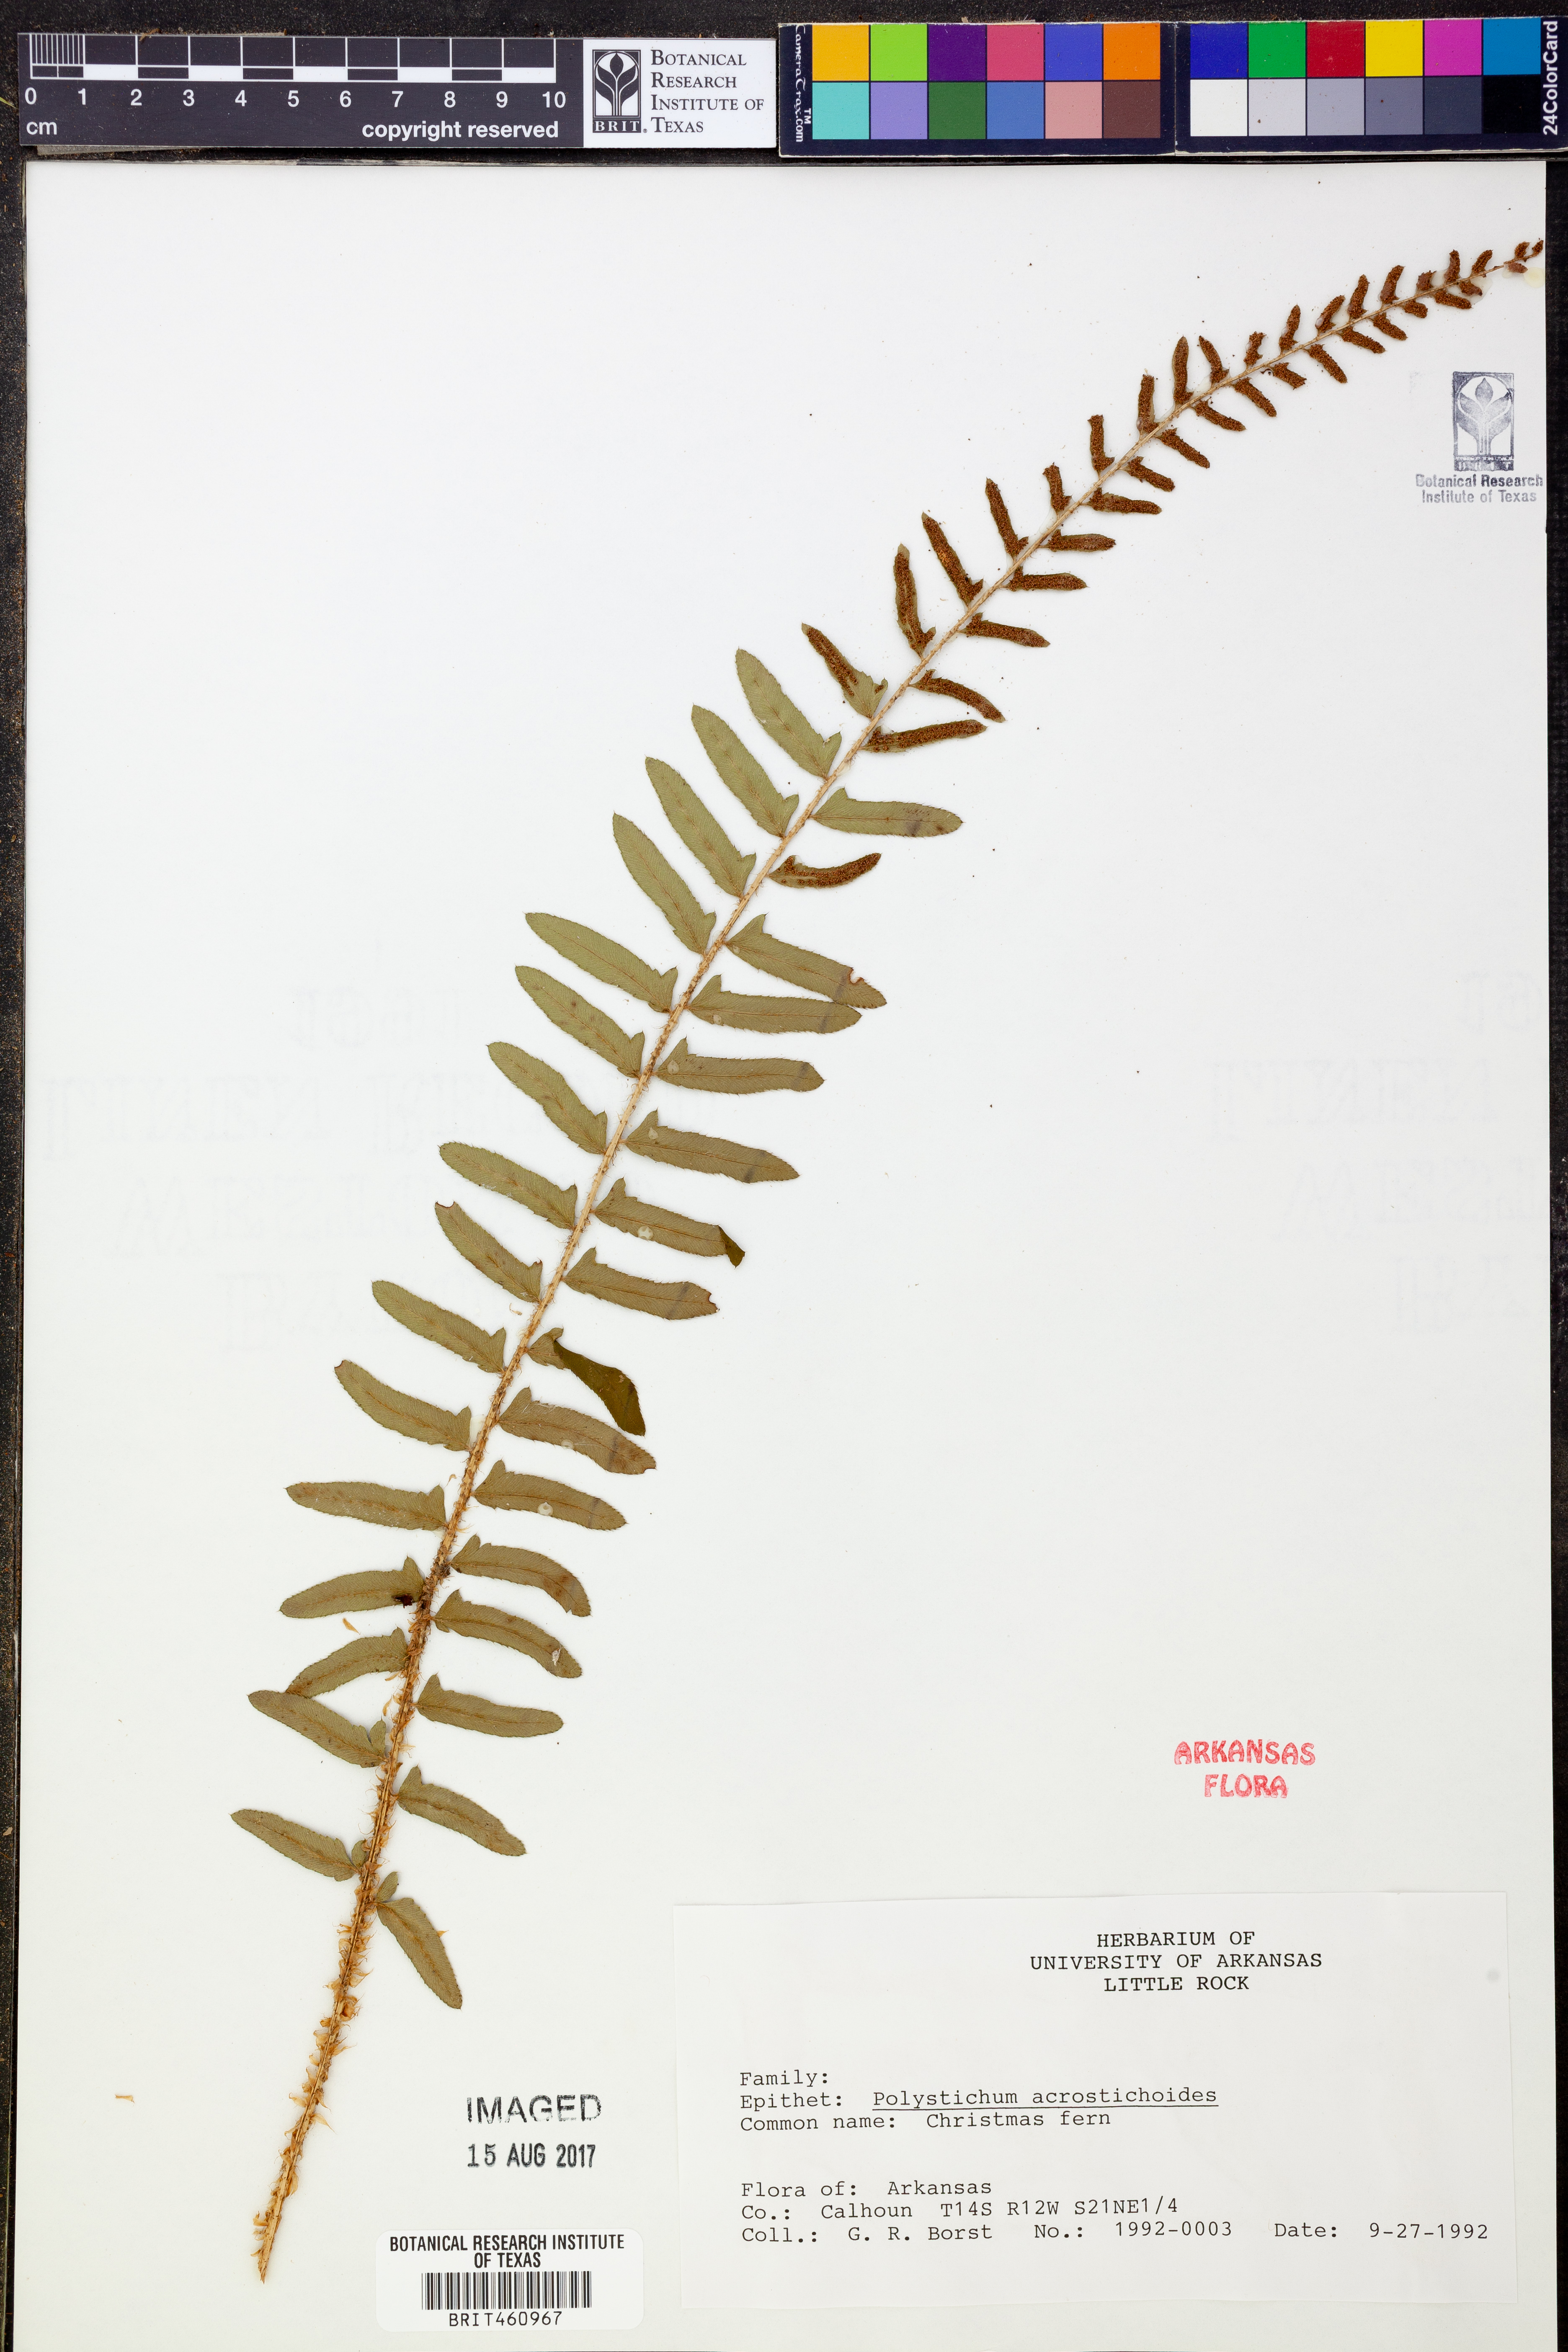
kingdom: Plantae
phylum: Tracheophyta
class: Polypodiopsida
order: Polypodiales
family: Dryopteridaceae
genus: Polystichum
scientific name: Polystichum acrostichoides
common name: Christmas fern
